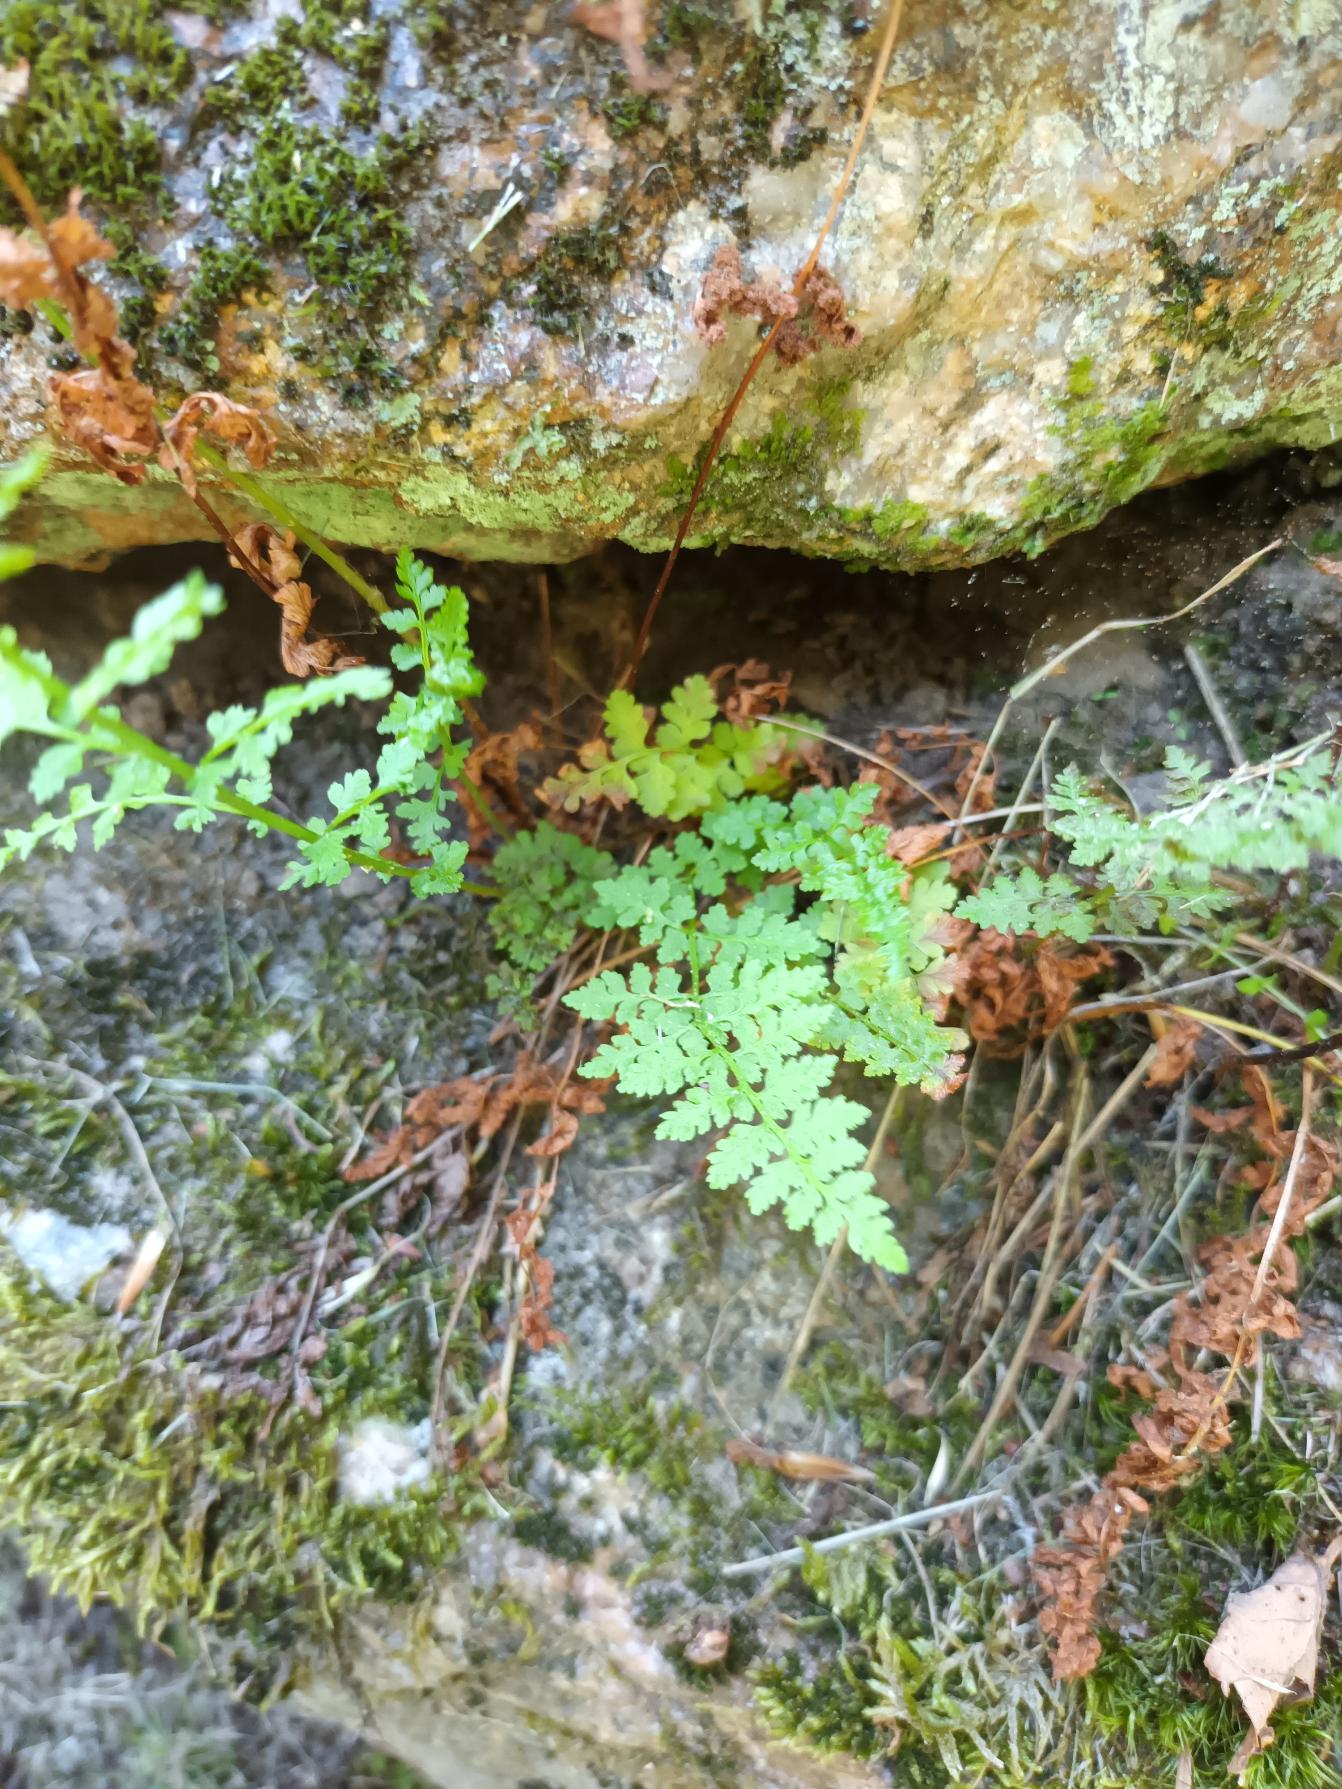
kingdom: Plantae
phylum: Tracheophyta
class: Polypodiopsida
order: Polypodiales
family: Cystopteridaceae
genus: Cystopteris
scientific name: Cystopteris fragilis
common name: Bægerbregne
